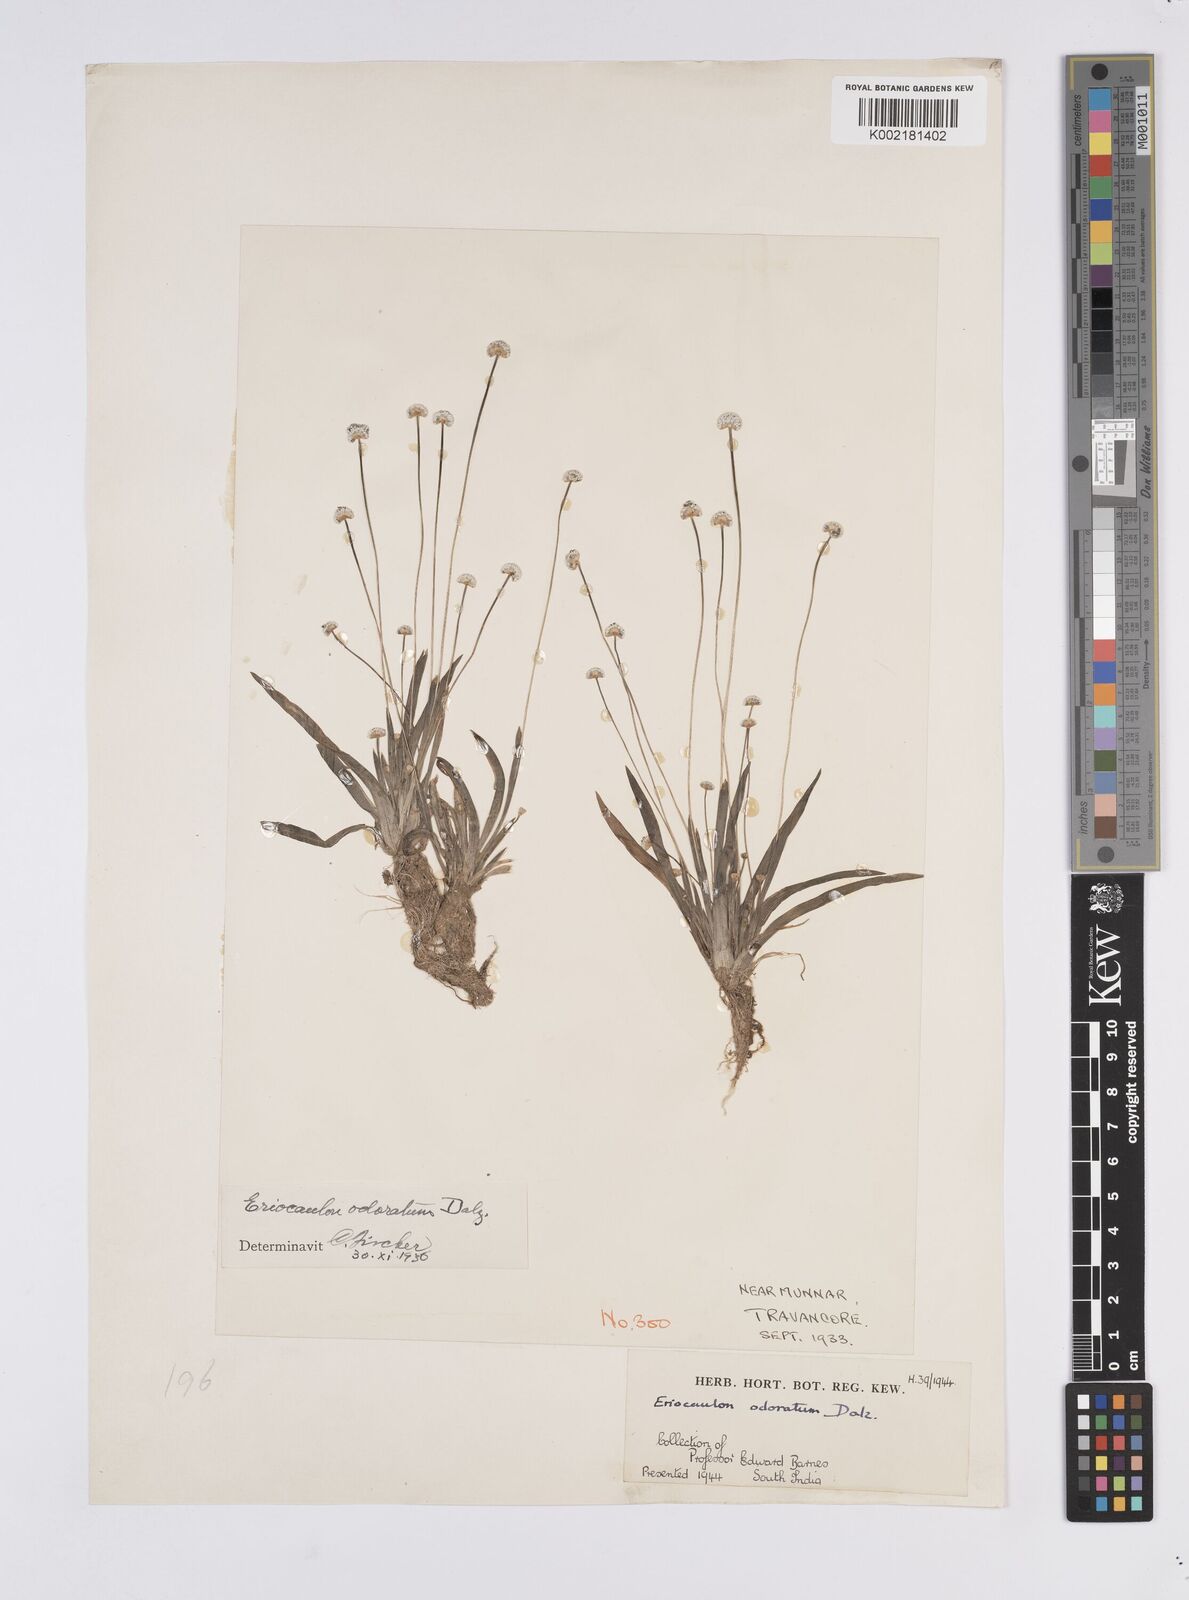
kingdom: Plantae
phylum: Tracheophyta
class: Liliopsida
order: Poales
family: Eriocaulaceae
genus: Eriocaulon
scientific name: Eriocaulon odoratum
